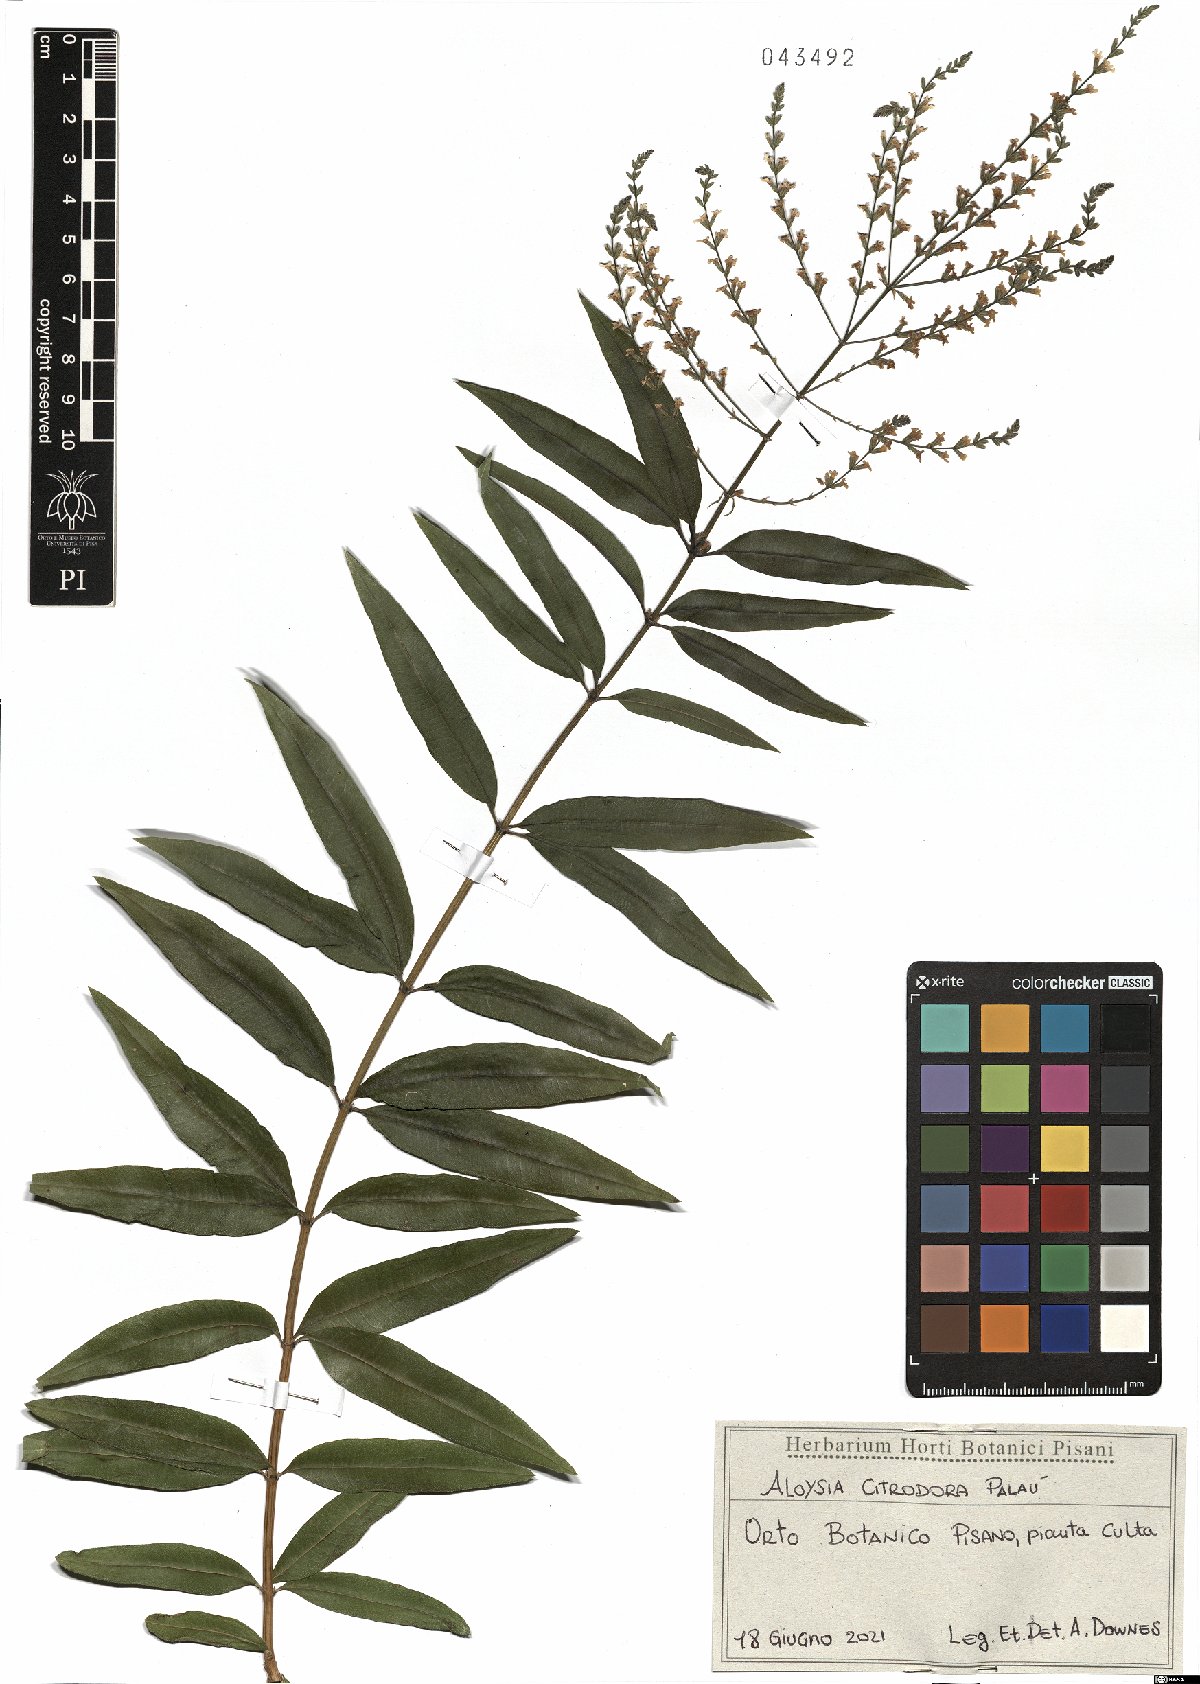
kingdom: Plantae
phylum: Tracheophyta
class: Magnoliopsida
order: Lamiales
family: Verbenaceae
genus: Aloysia
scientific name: Aloysia citrodora
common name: Lemon beebrush
